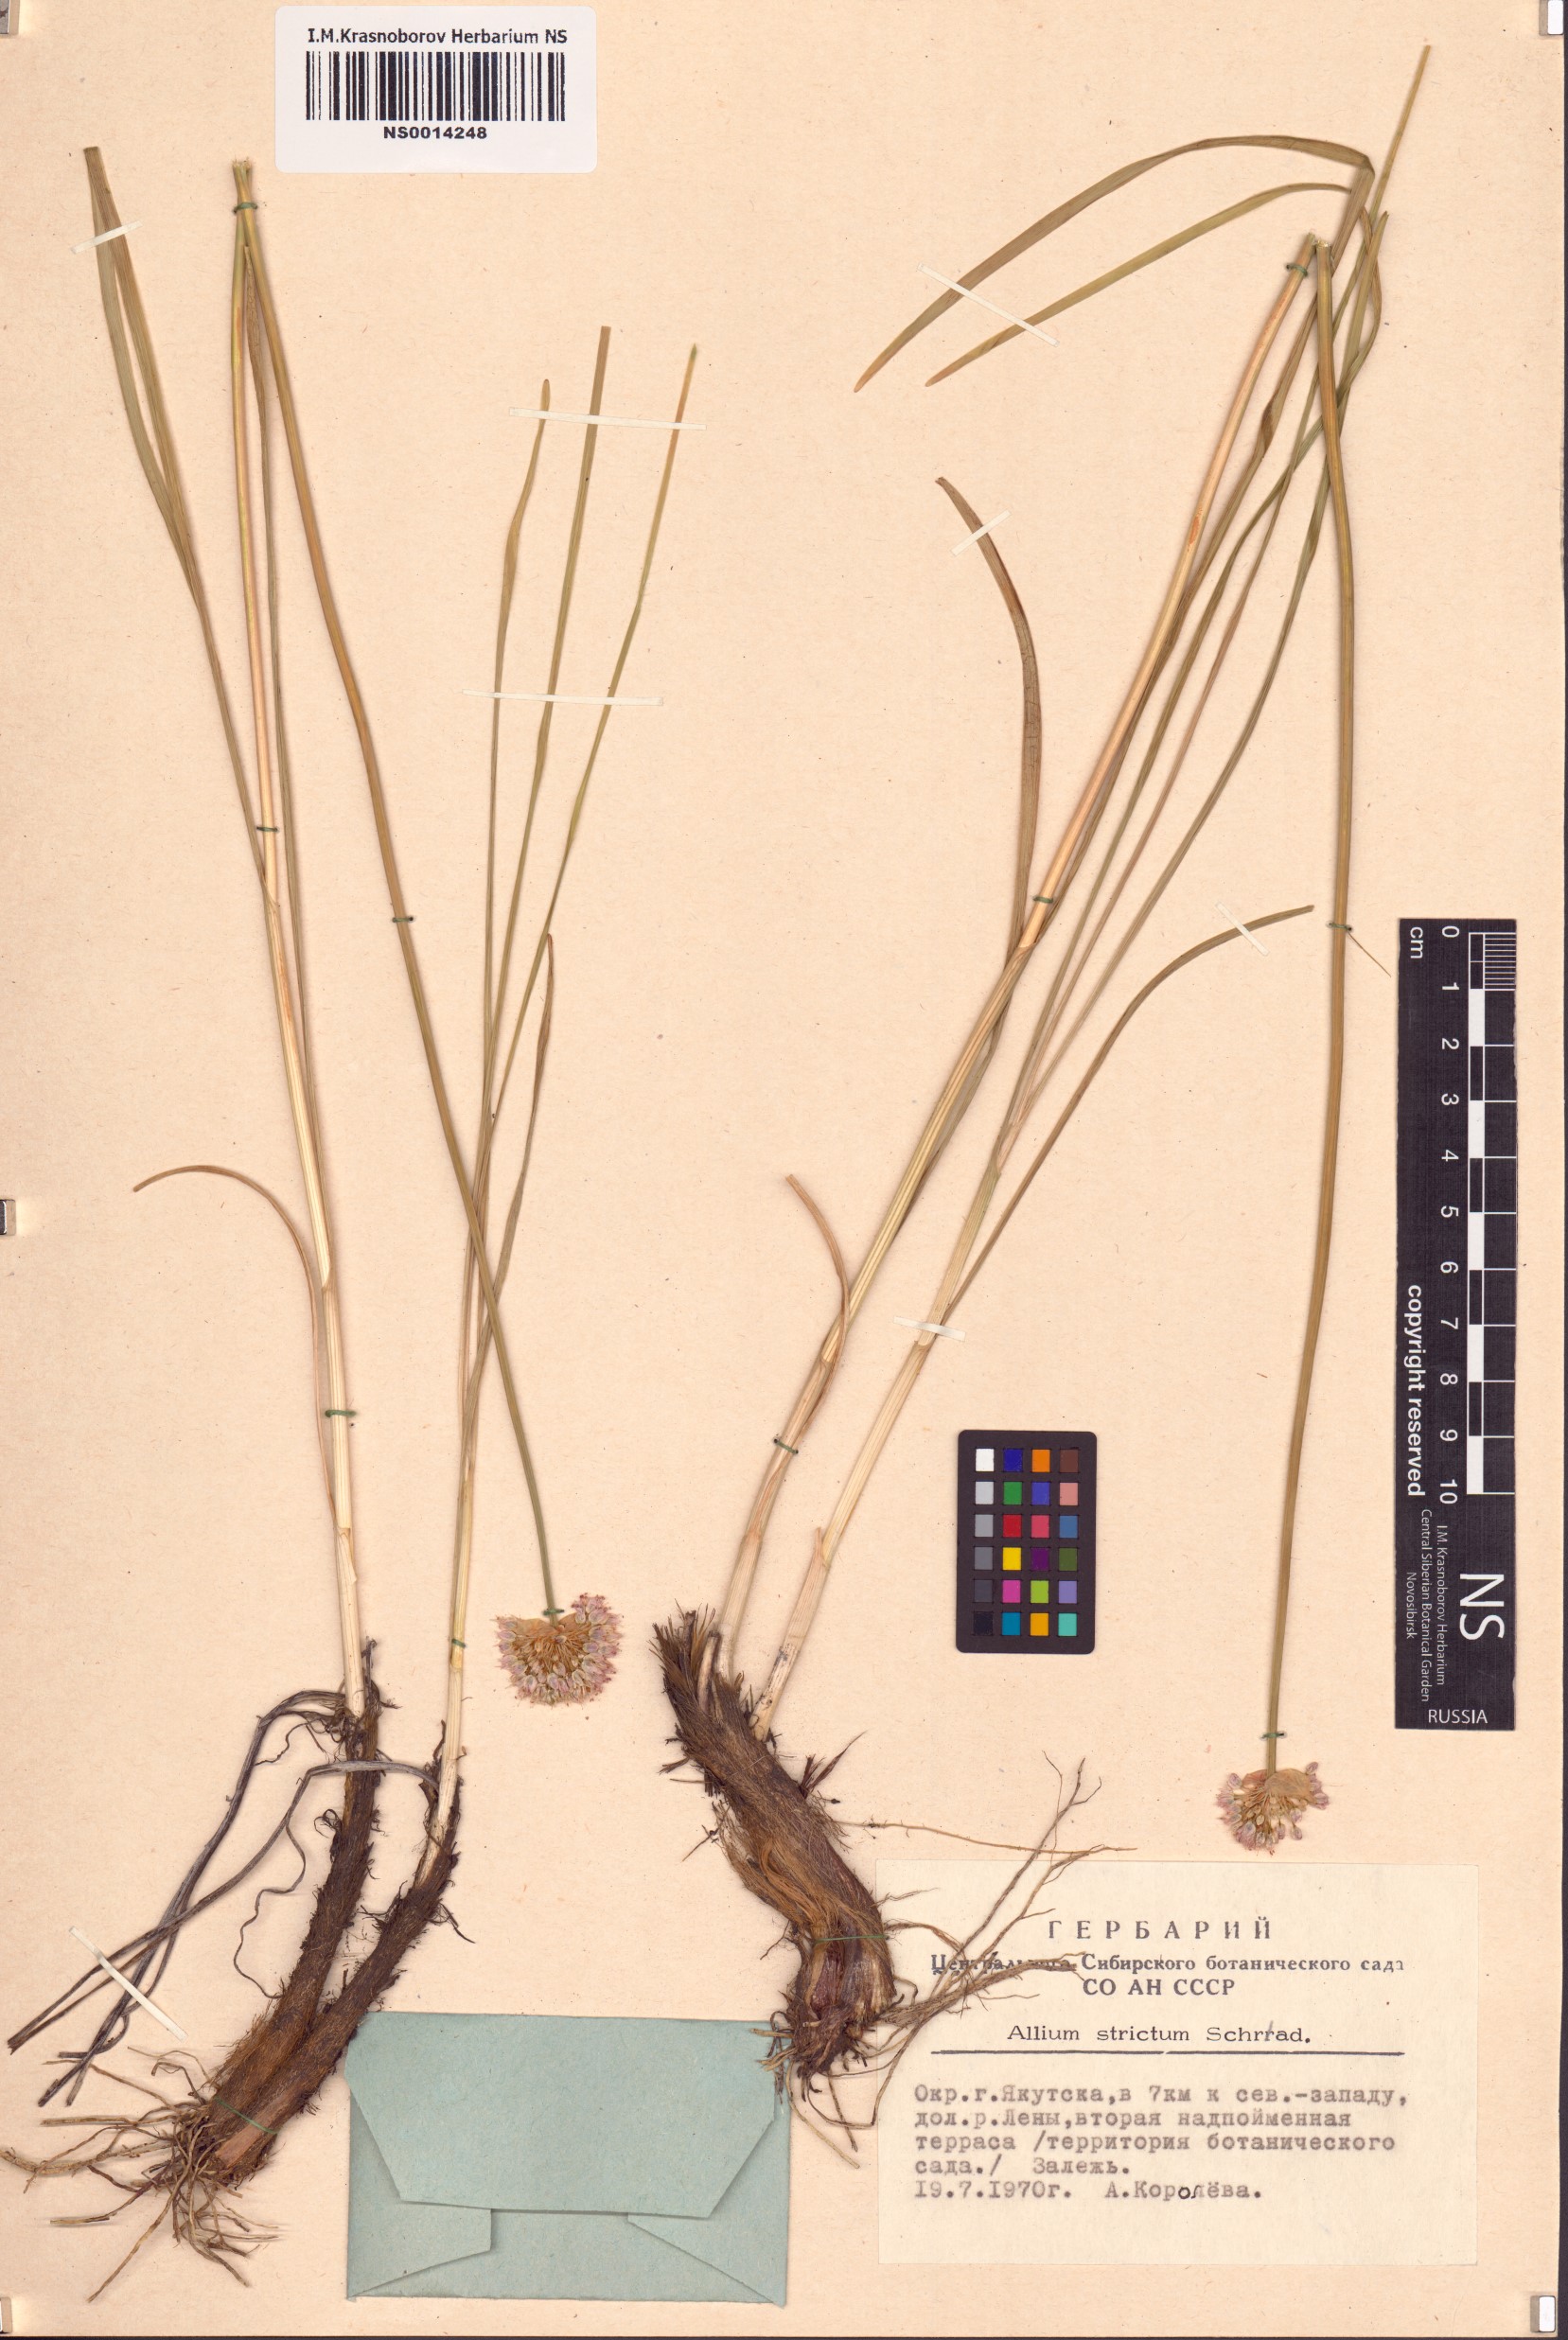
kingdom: Plantae
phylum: Tracheophyta
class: Liliopsida
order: Asparagales
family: Amaryllidaceae
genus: Allium
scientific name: Allium strictum
